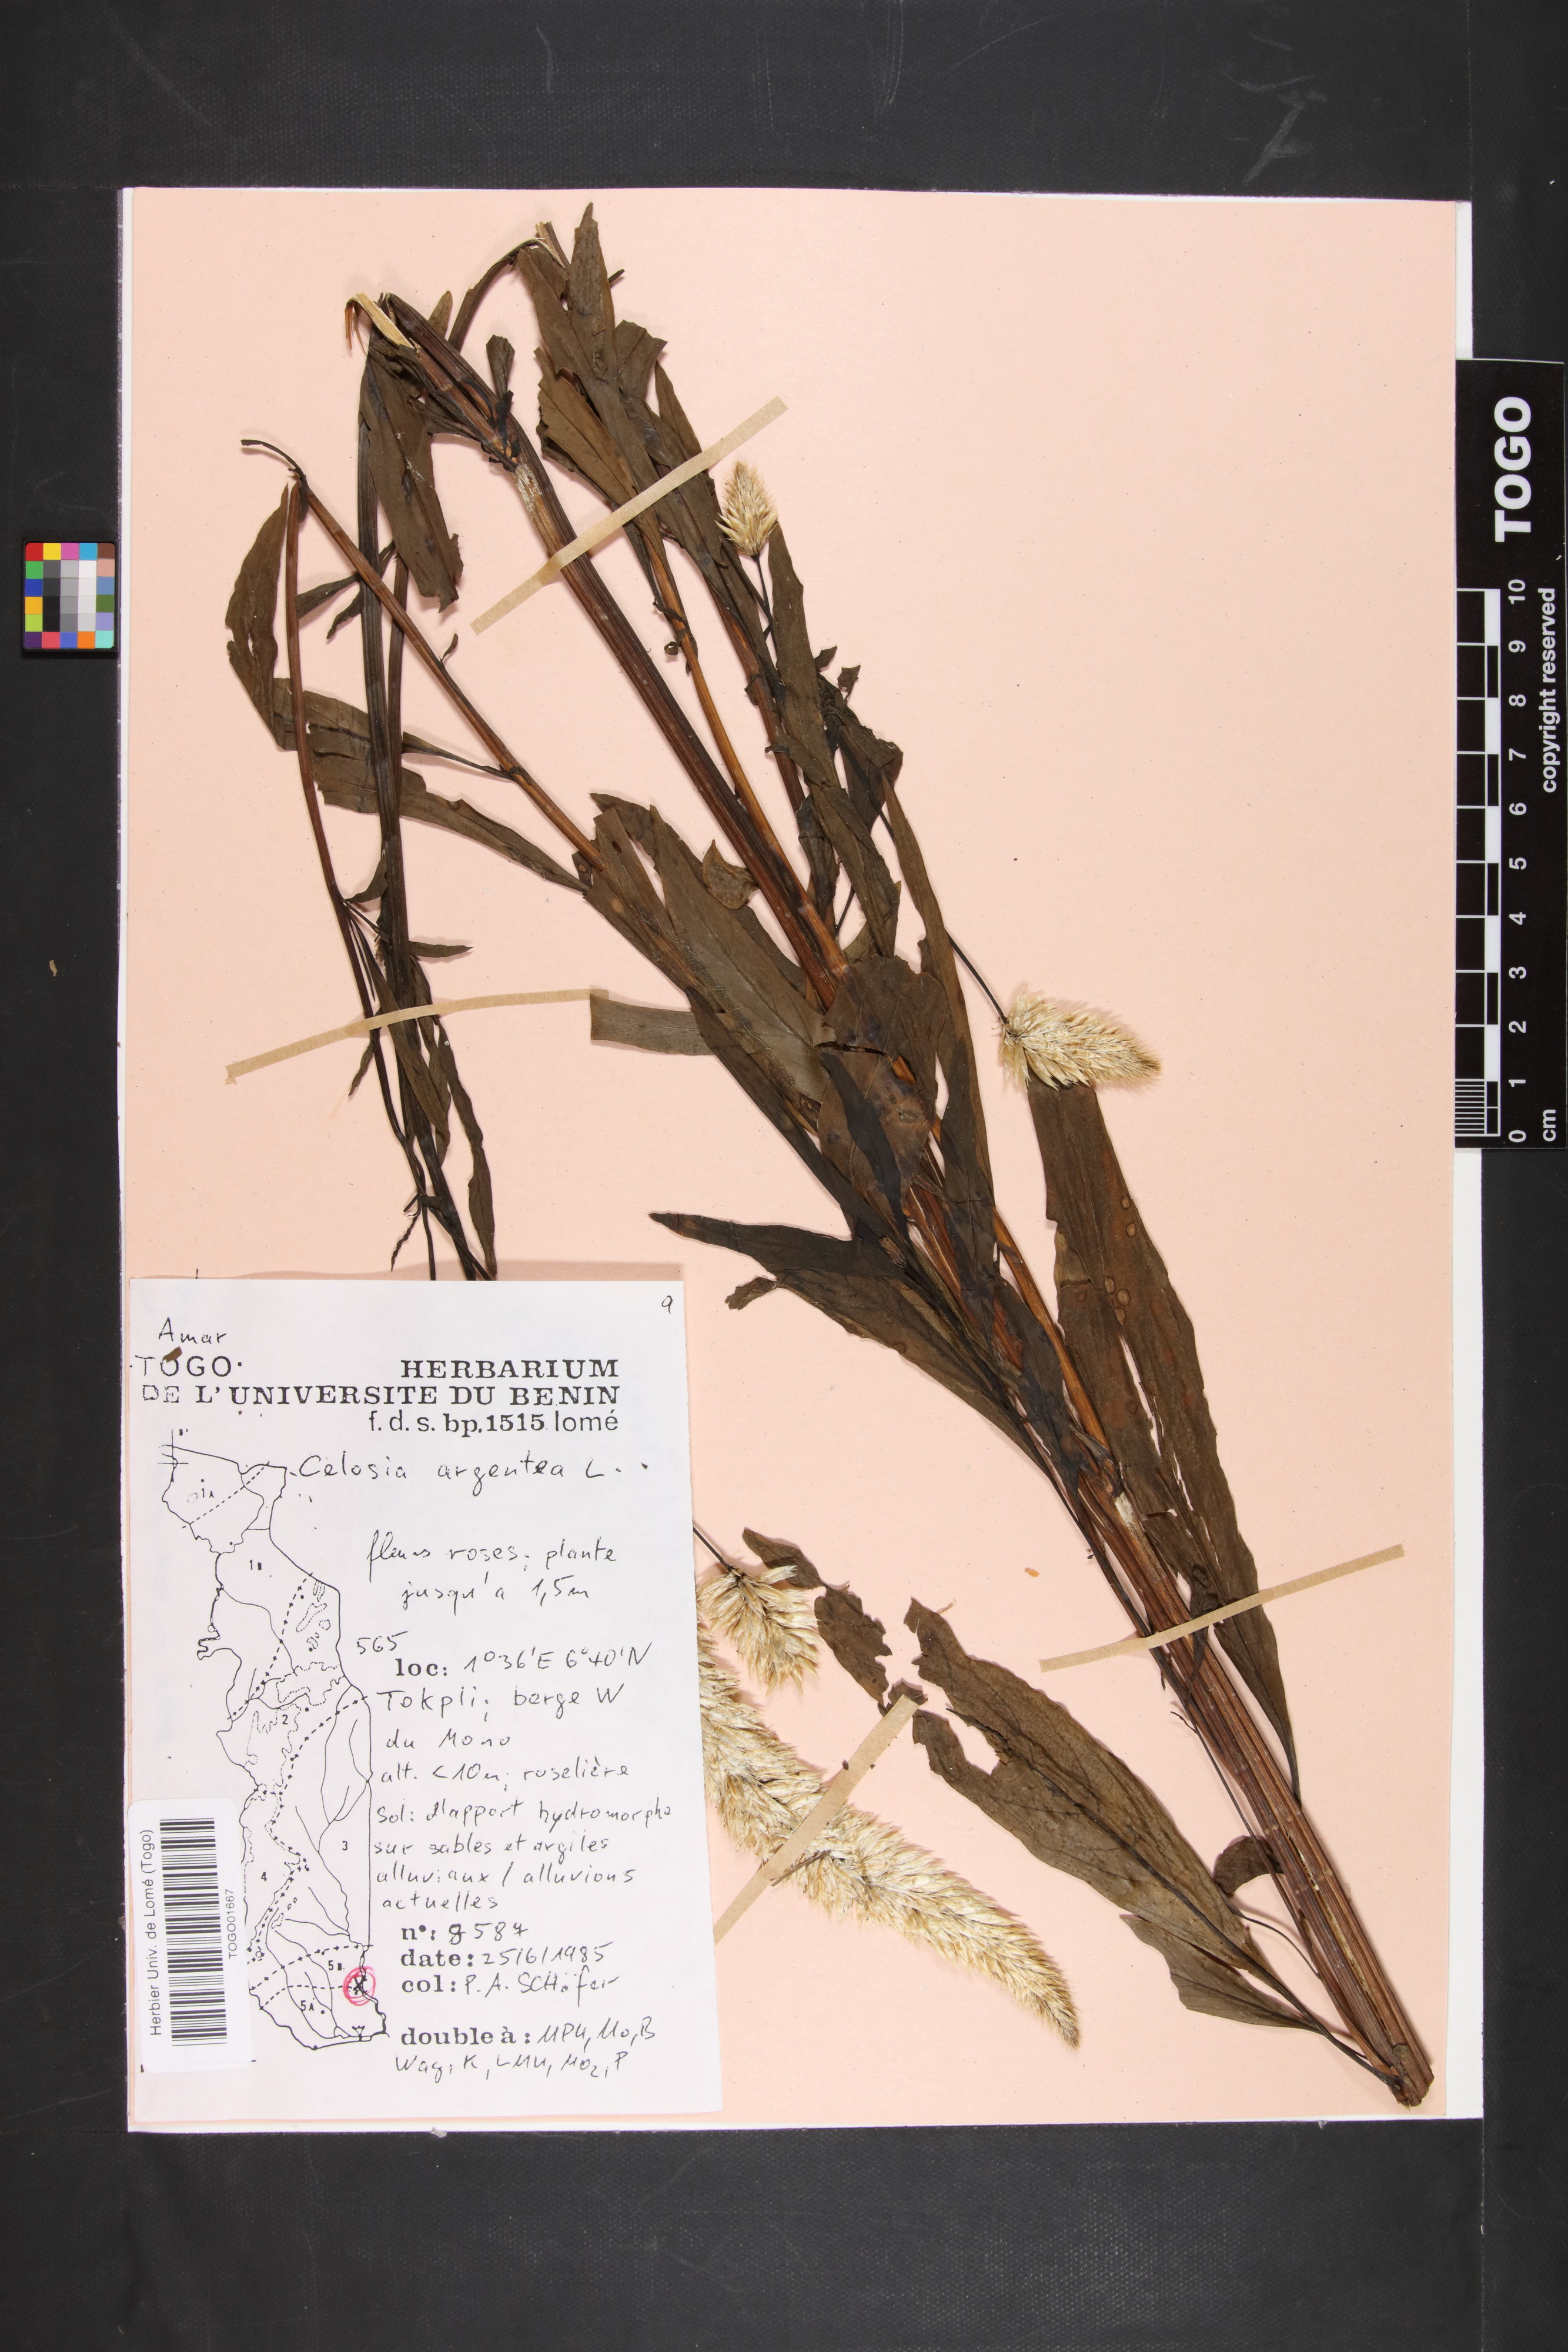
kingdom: Plantae
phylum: Tracheophyta
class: Magnoliopsida
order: Caryophyllales
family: Amaranthaceae
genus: Celosia
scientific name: Celosia argentea
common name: Feather cockscomb
